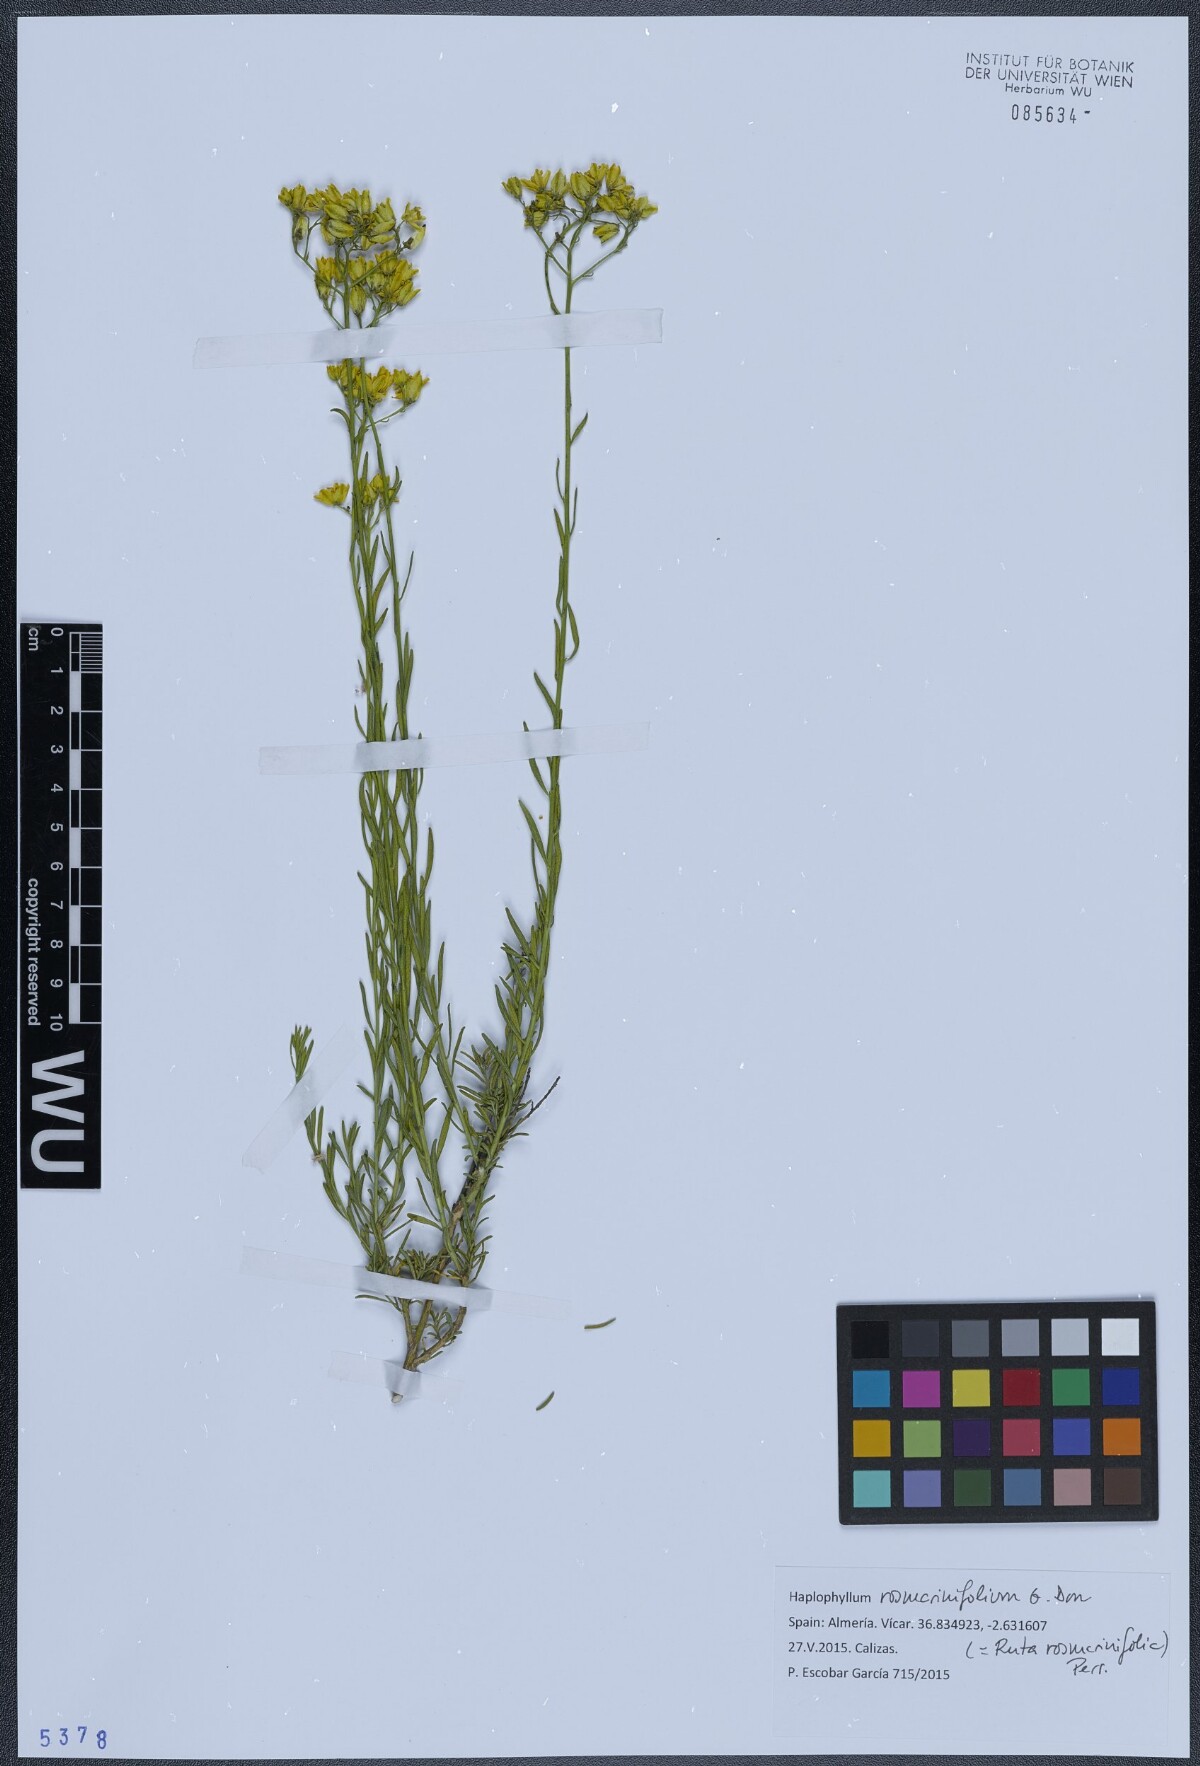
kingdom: Plantae
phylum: Tracheophyta
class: Magnoliopsida
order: Sapindales
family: Rutaceae
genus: Haplophyllum
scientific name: Haplophyllum rosmarinifolium
